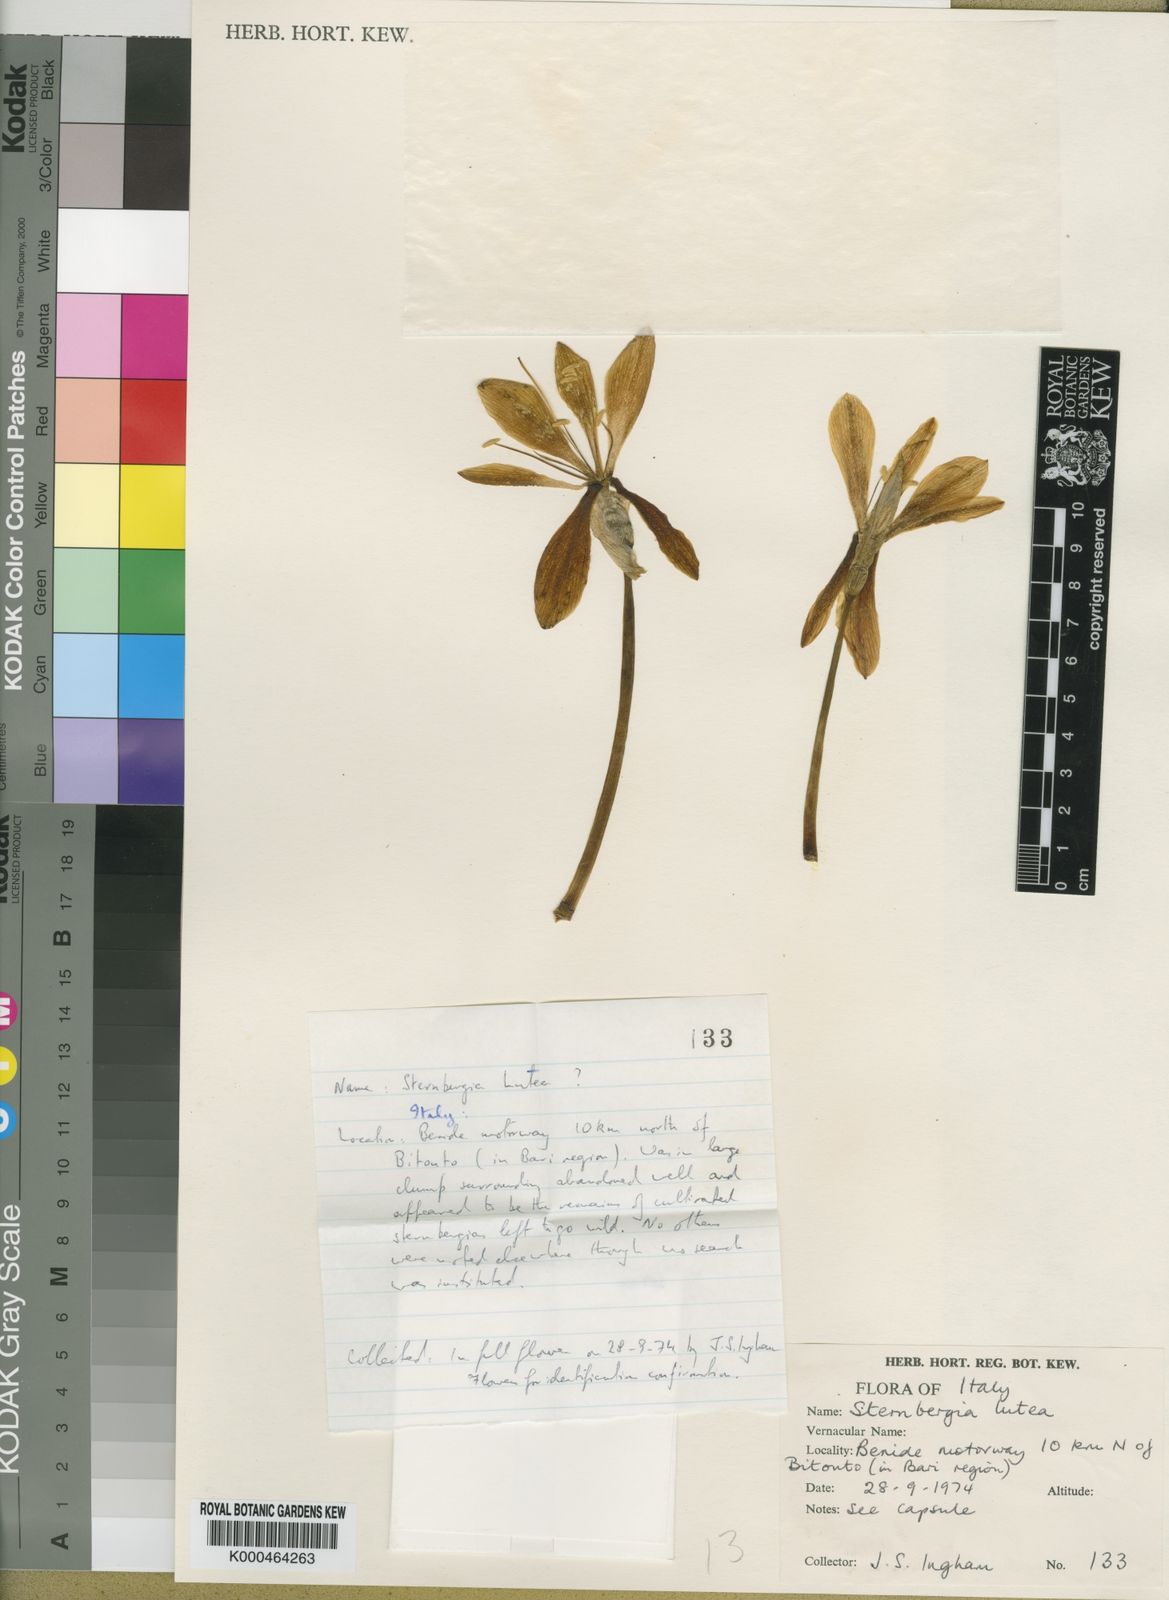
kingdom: Plantae
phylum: Tracheophyta
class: Liliopsida
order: Asparagales
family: Amaryllidaceae
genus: Sternbergia
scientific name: Sternbergia
